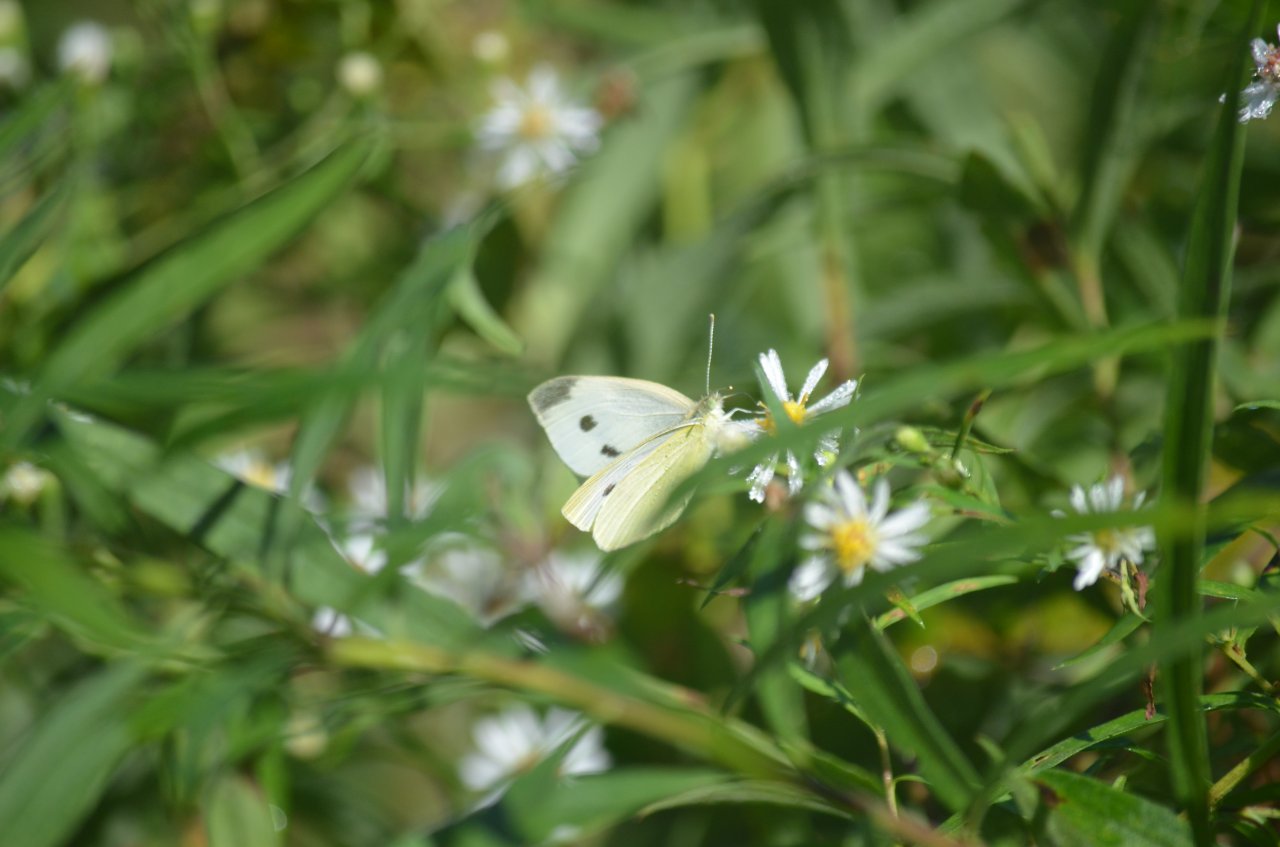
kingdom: Animalia
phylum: Arthropoda
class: Insecta
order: Lepidoptera
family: Pieridae
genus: Pieris
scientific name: Pieris rapae
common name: Cabbage White
